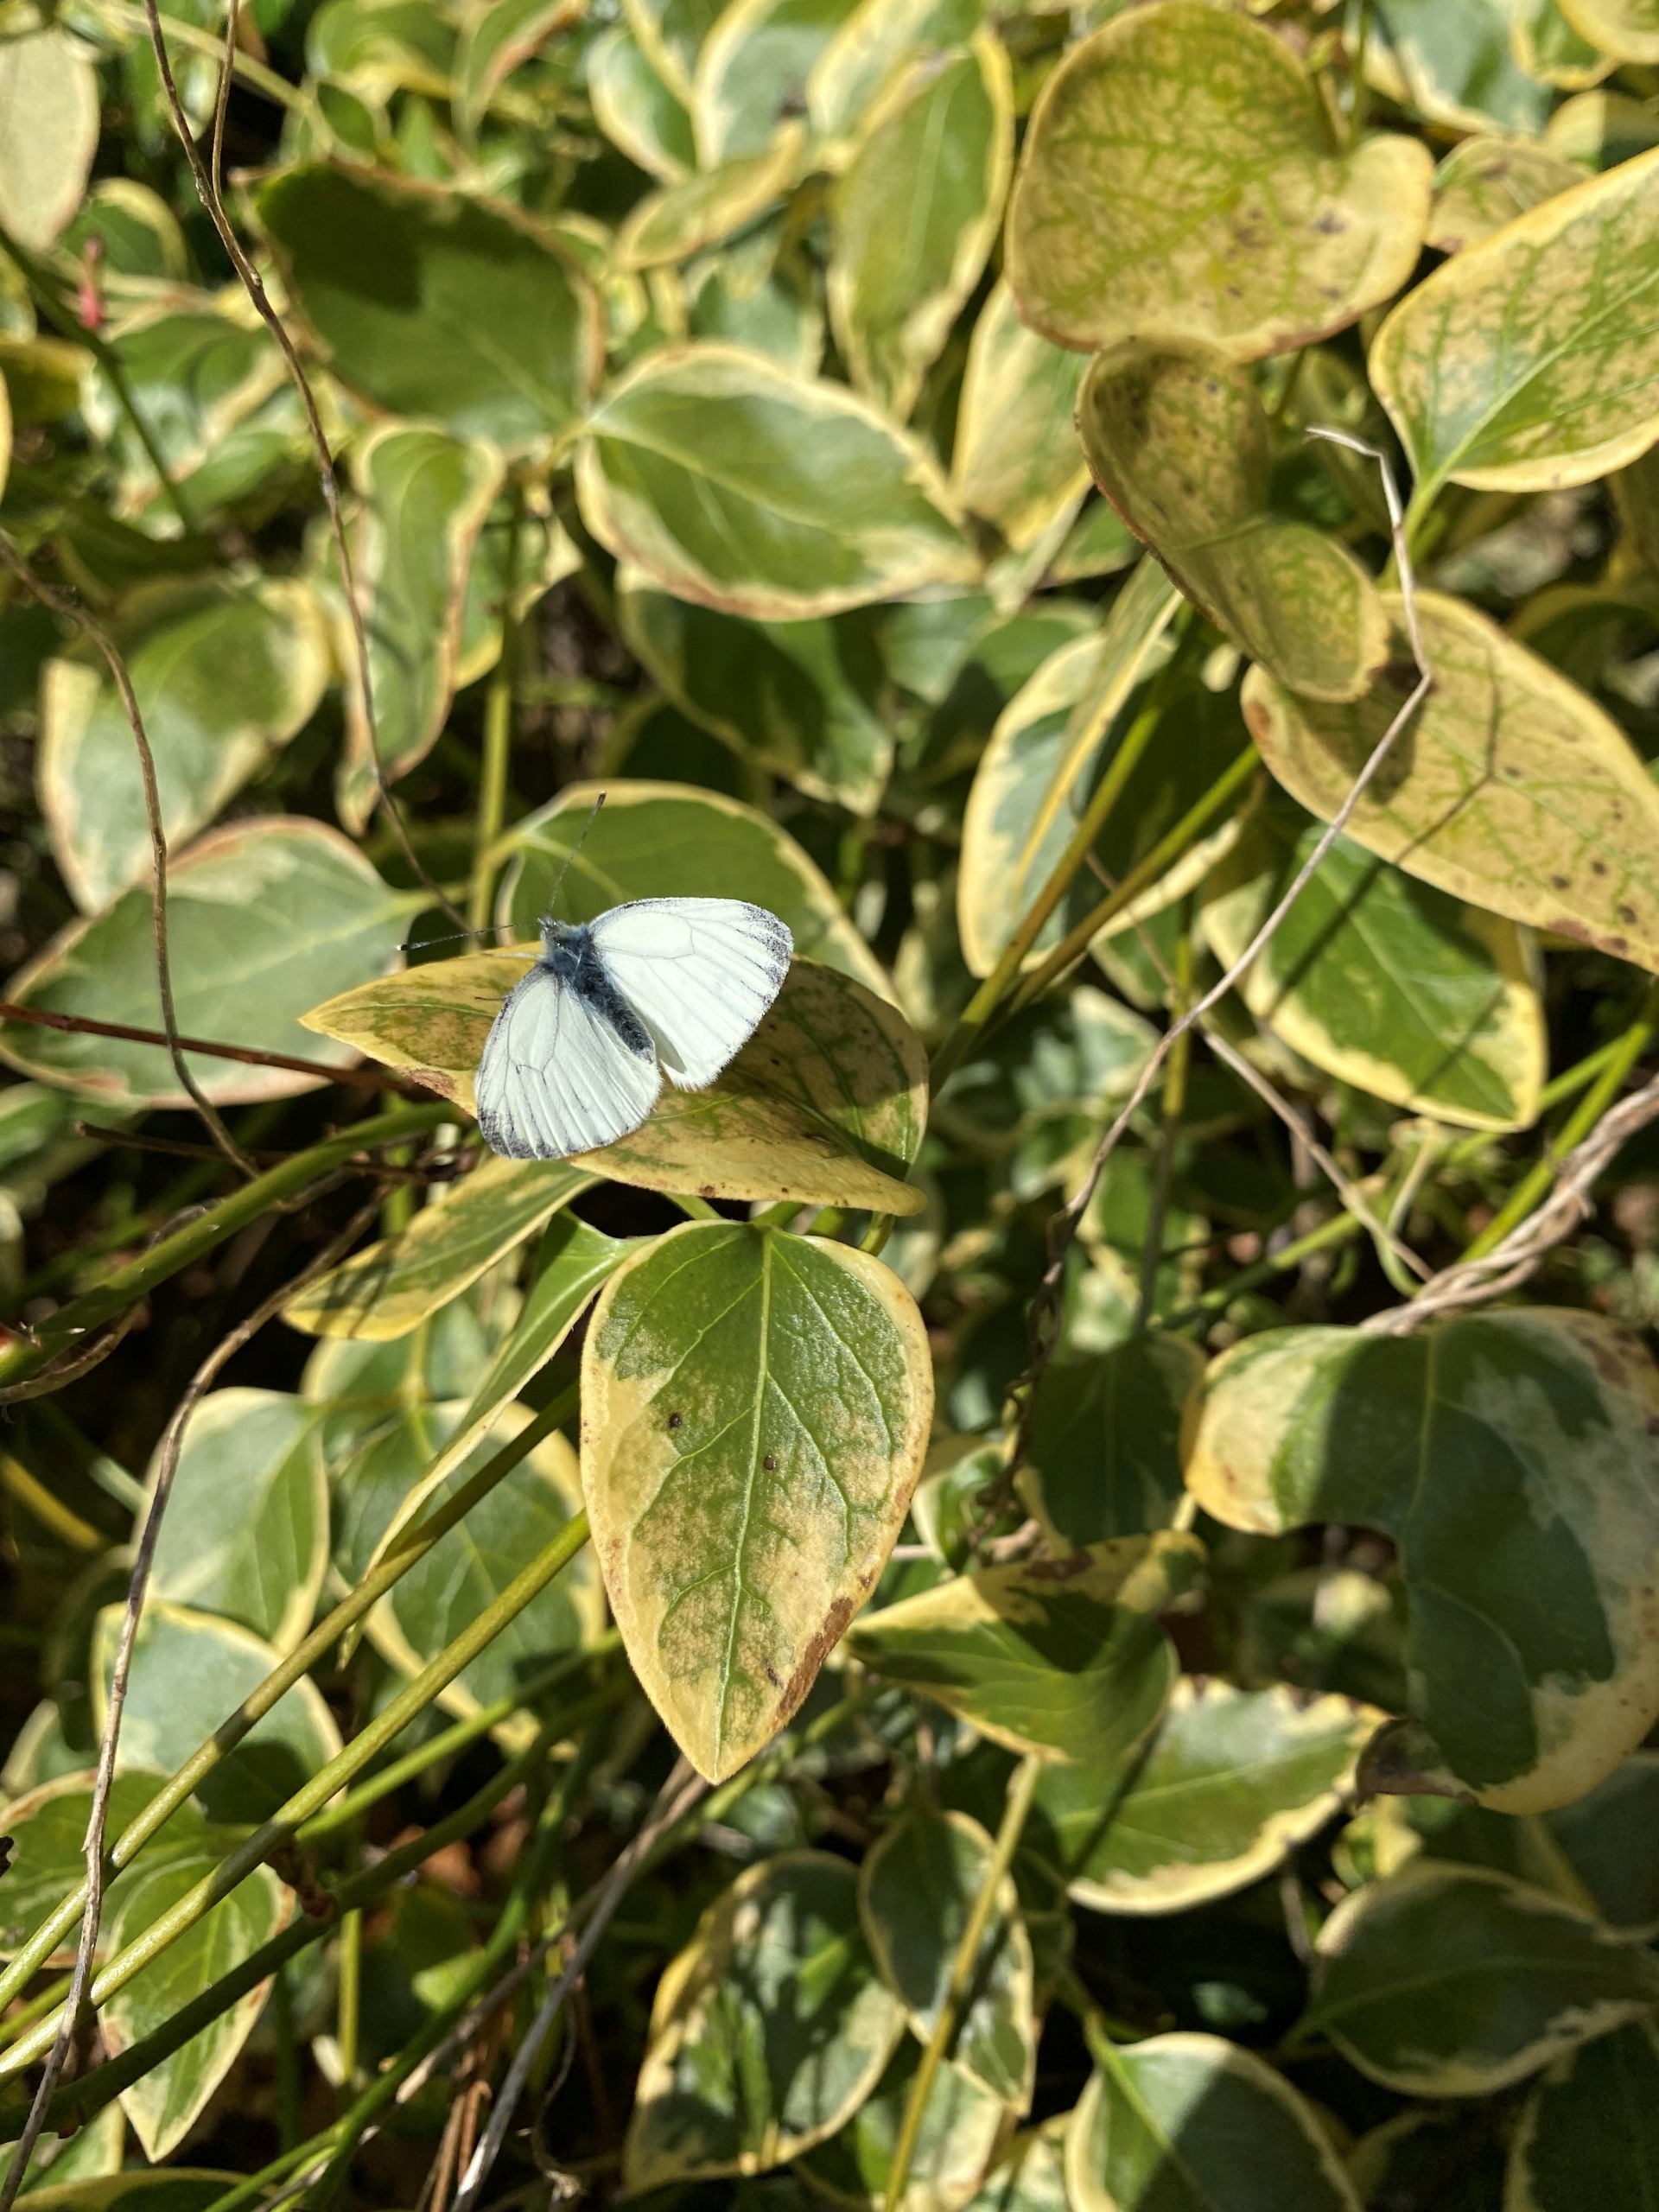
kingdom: Animalia
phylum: Arthropoda
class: Insecta
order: Lepidoptera
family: Pieridae
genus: Pieris
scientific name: Pieris napi
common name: Grønåret kålsommerfugl
